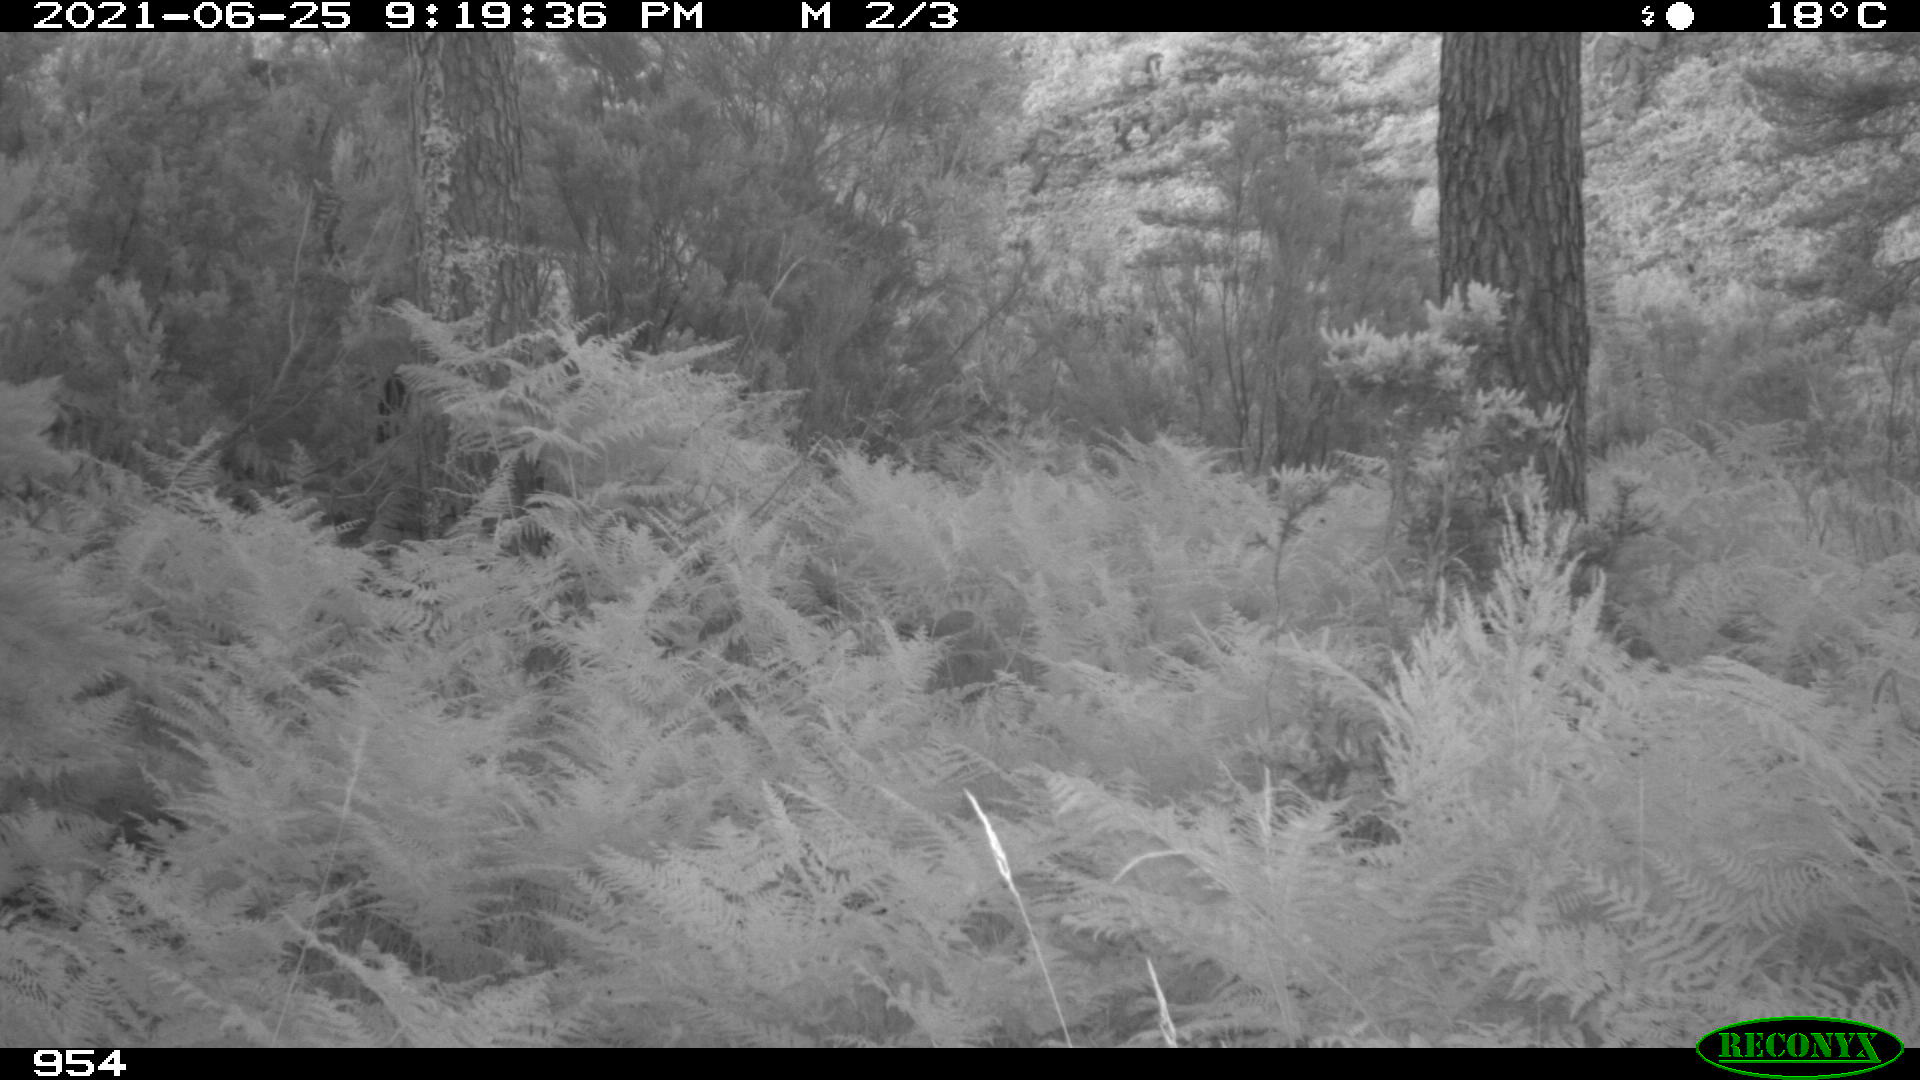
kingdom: Animalia
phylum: Chordata
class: Mammalia
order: Artiodactyla
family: Bovidae
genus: Bos
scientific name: Bos taurus
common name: Domesticated cattle
